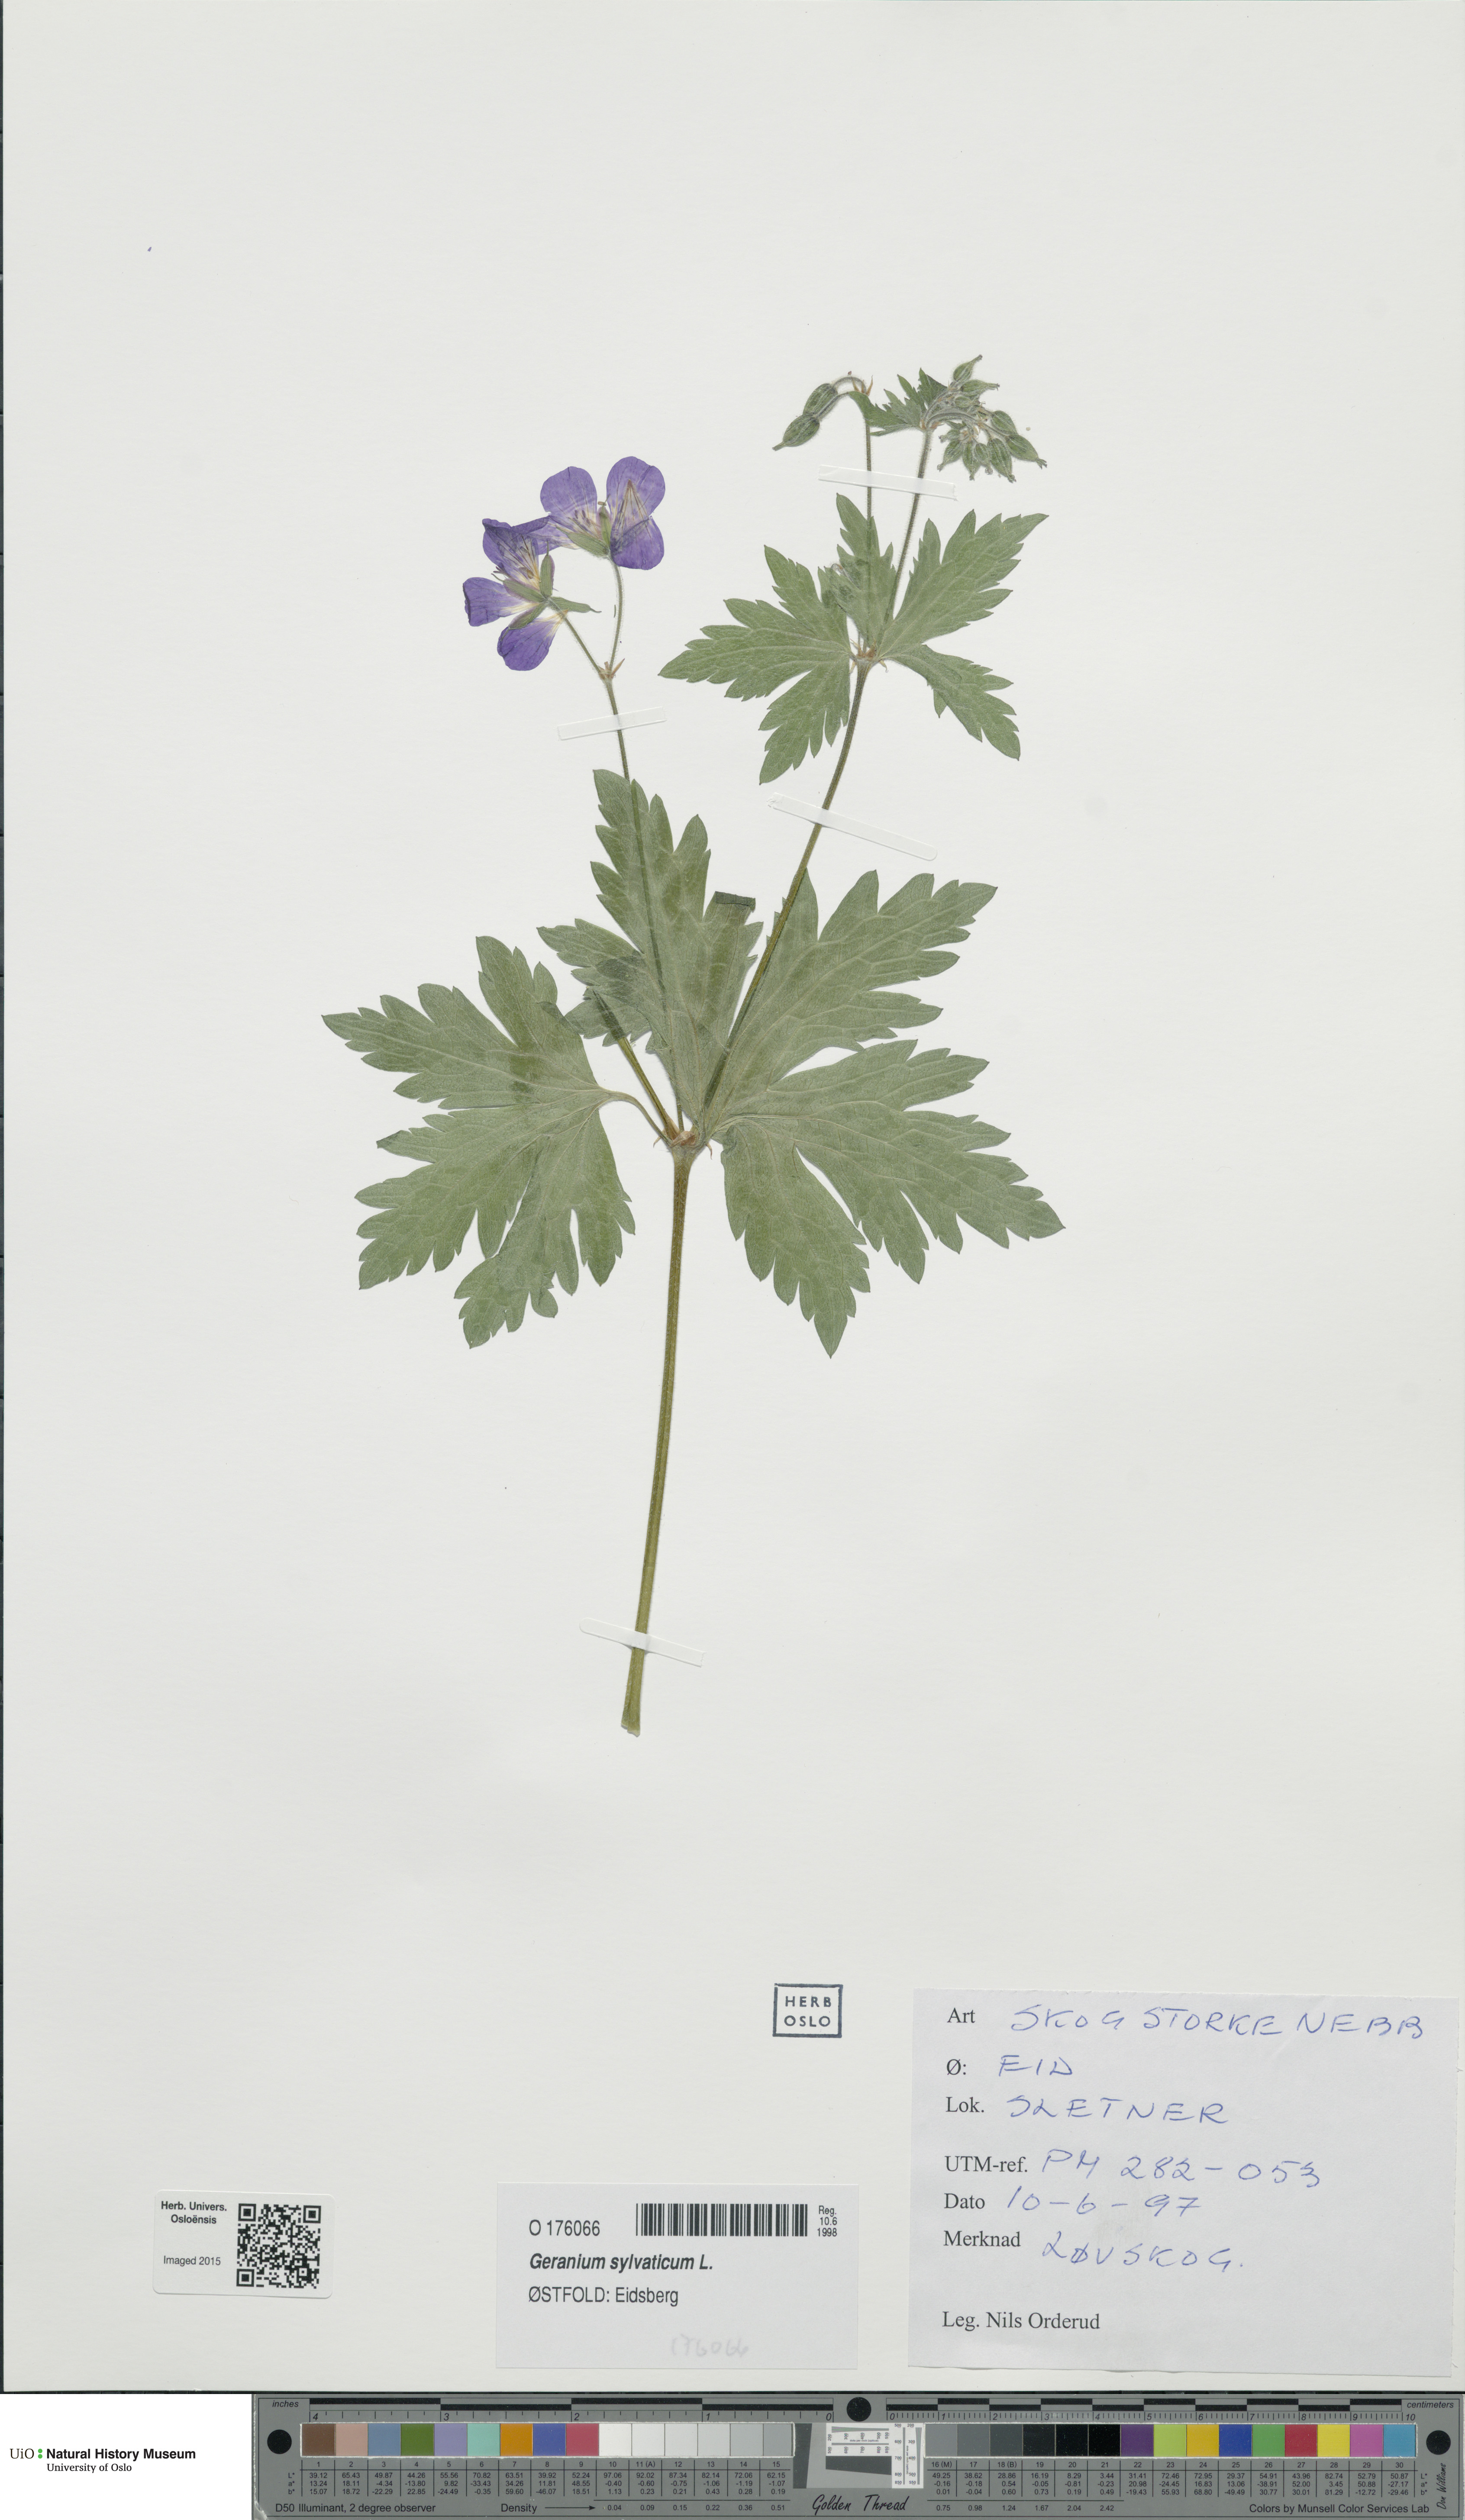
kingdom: Plantae
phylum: Tracheophyta
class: Magnoliopsida
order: Geraniales
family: Geraniaceae
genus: Geranium
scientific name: Geranium sylvaticum
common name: Wood crane's-bill
